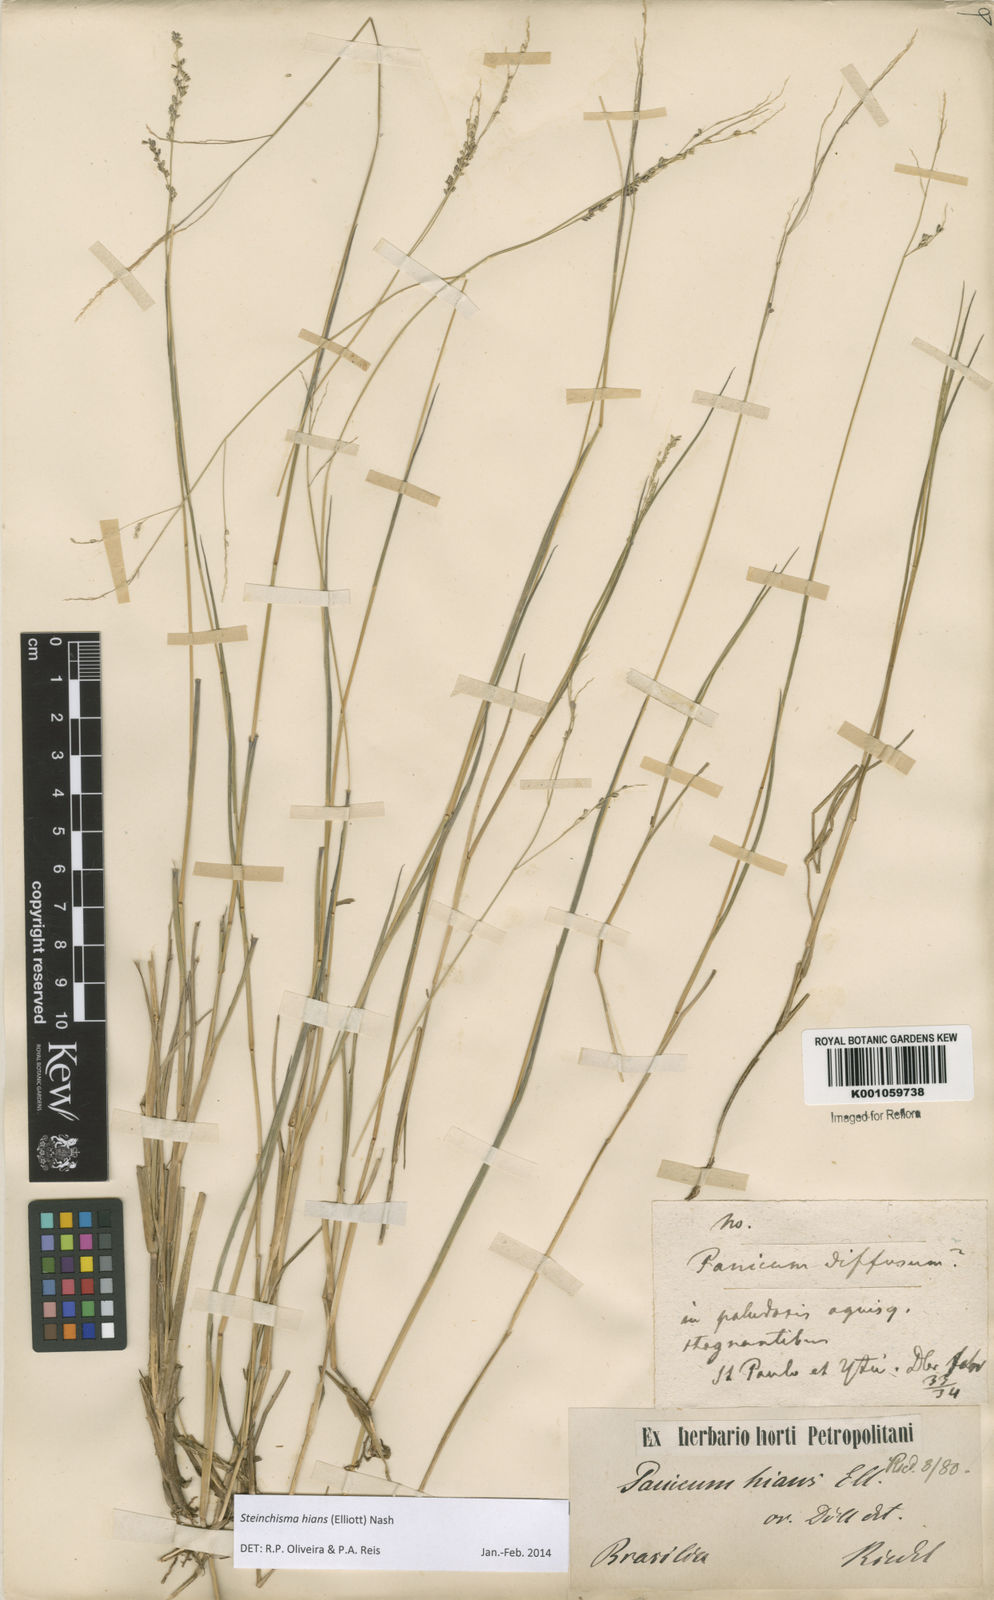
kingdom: Plantae
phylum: Tracheophyta
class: Liliopsida
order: Poales
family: Poaceae
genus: Steinchisma
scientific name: Steinchisma hians
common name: Gaping panic grass
